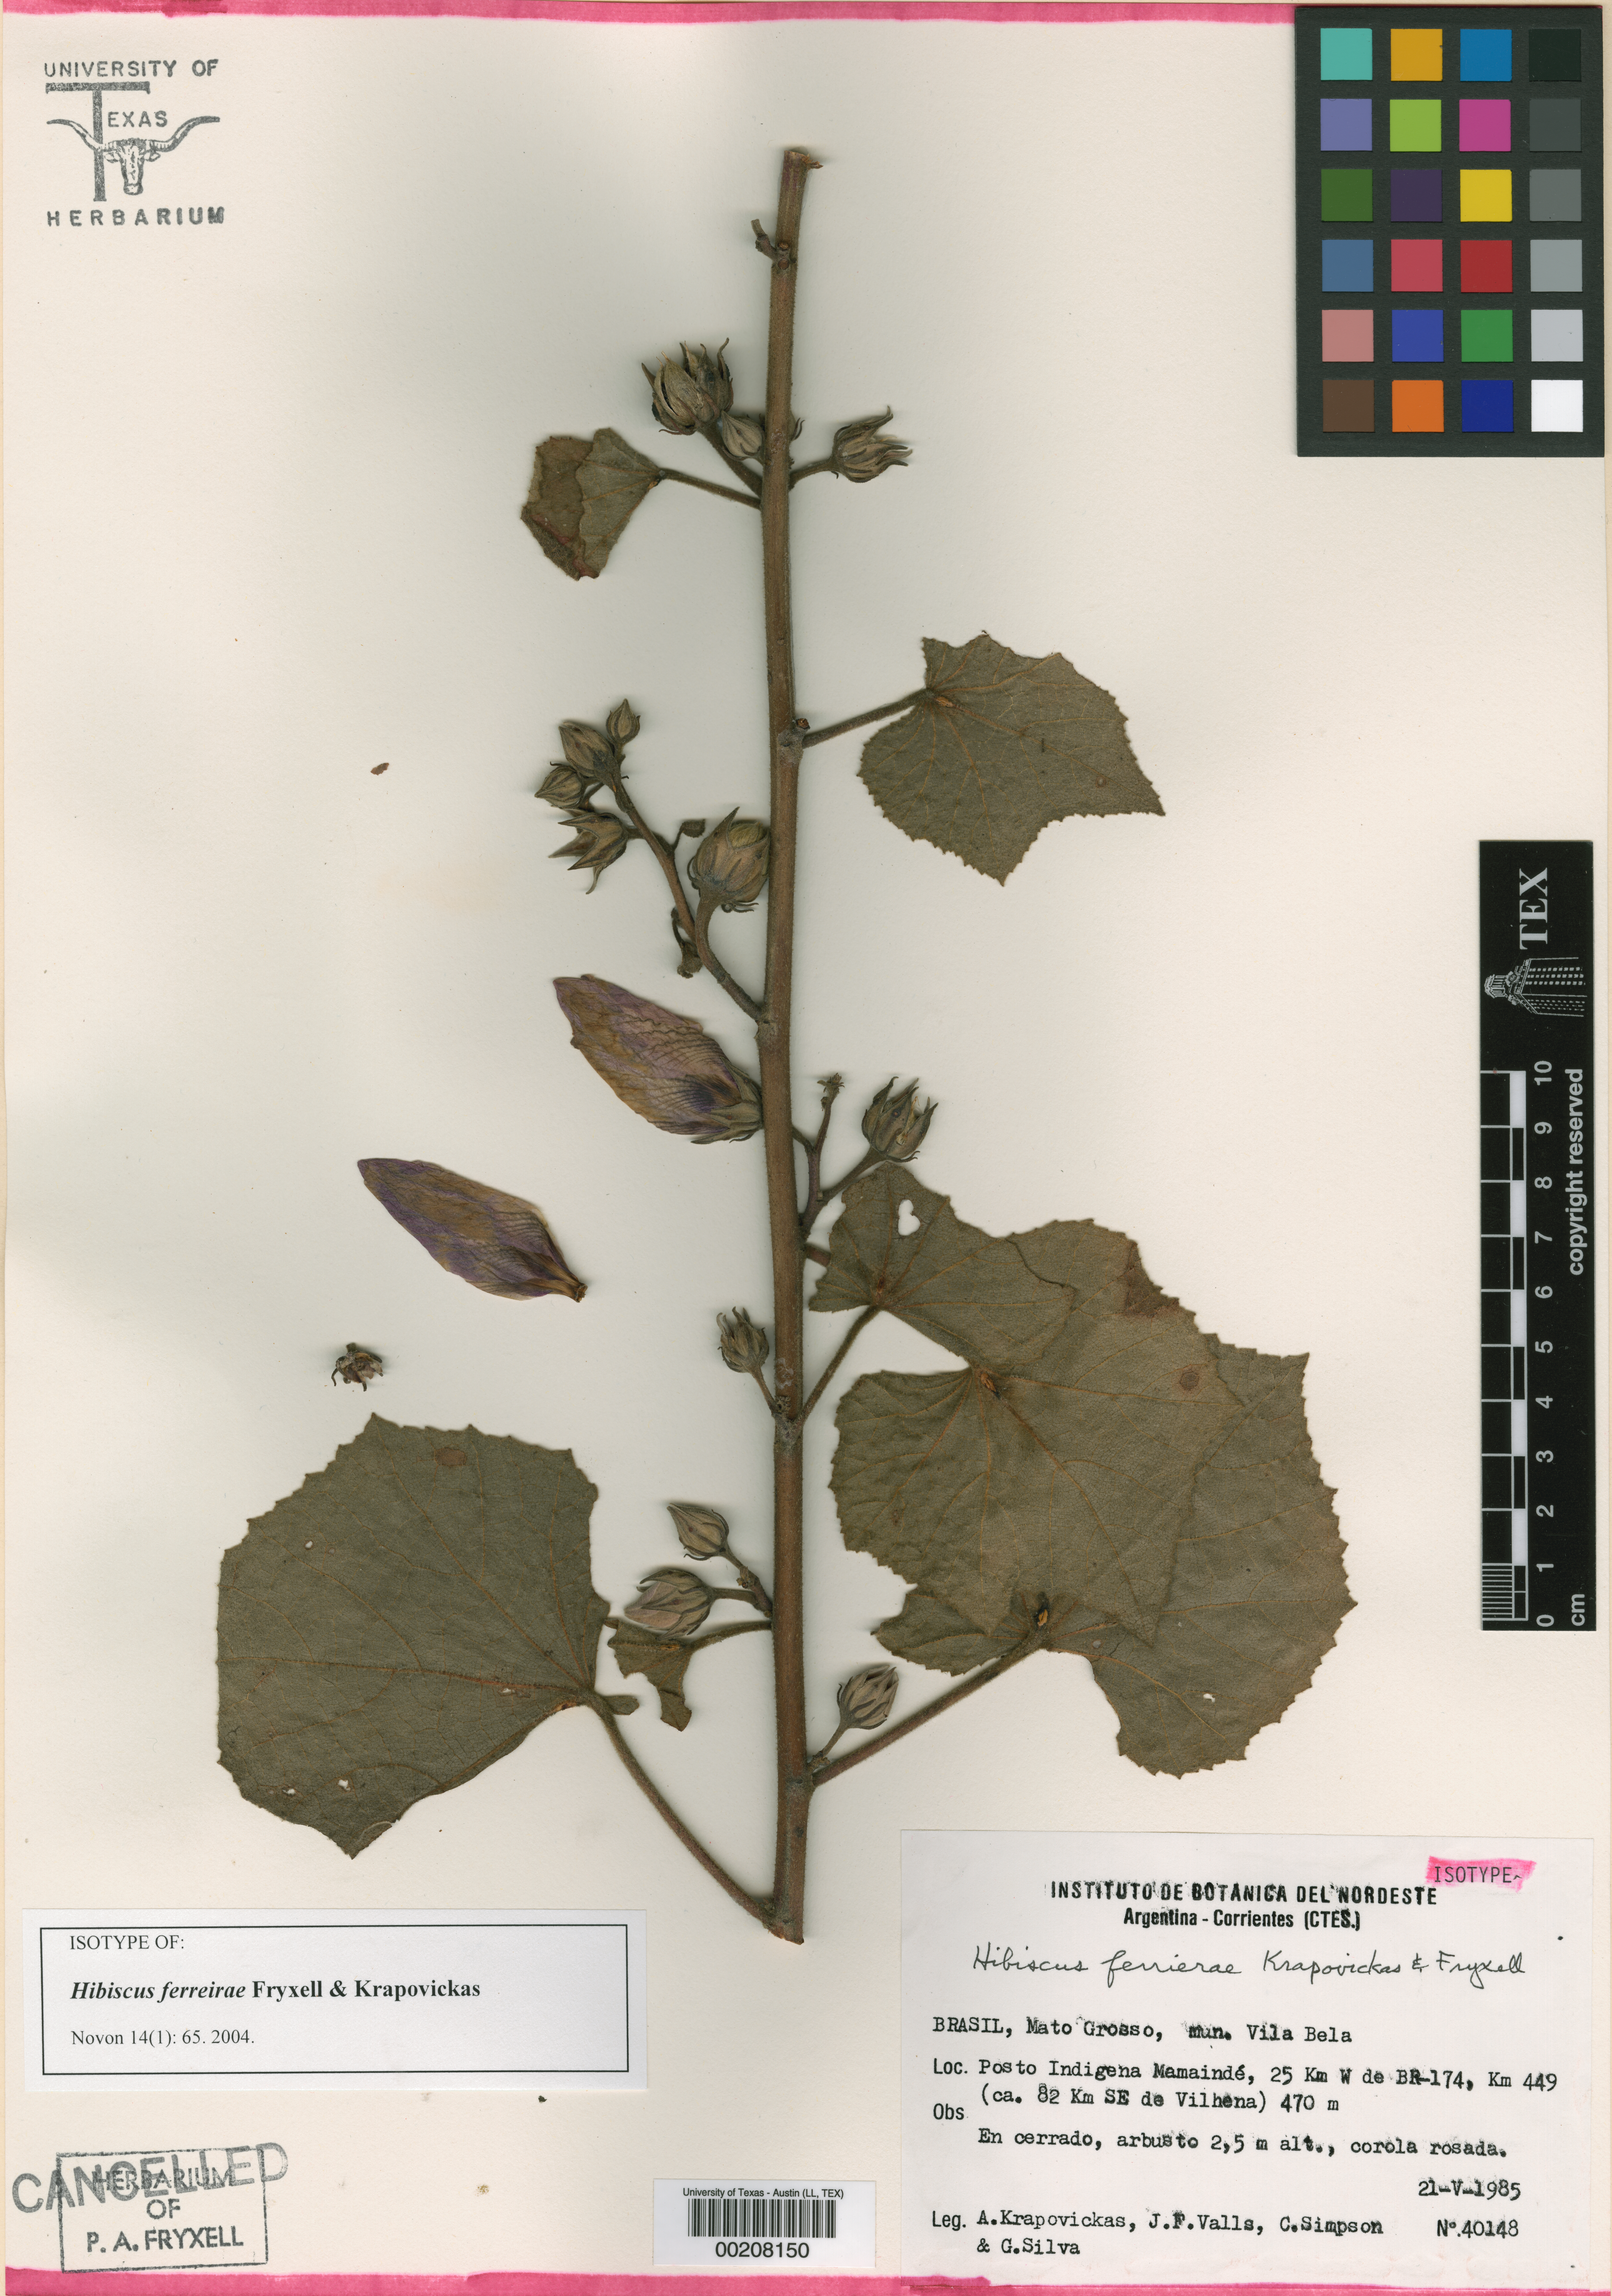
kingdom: Plantae
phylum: Tracheophyta
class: Magnoliopsida
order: Malvales
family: Malvaceae
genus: Hibiscus
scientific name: Hibiscus ferreirae
